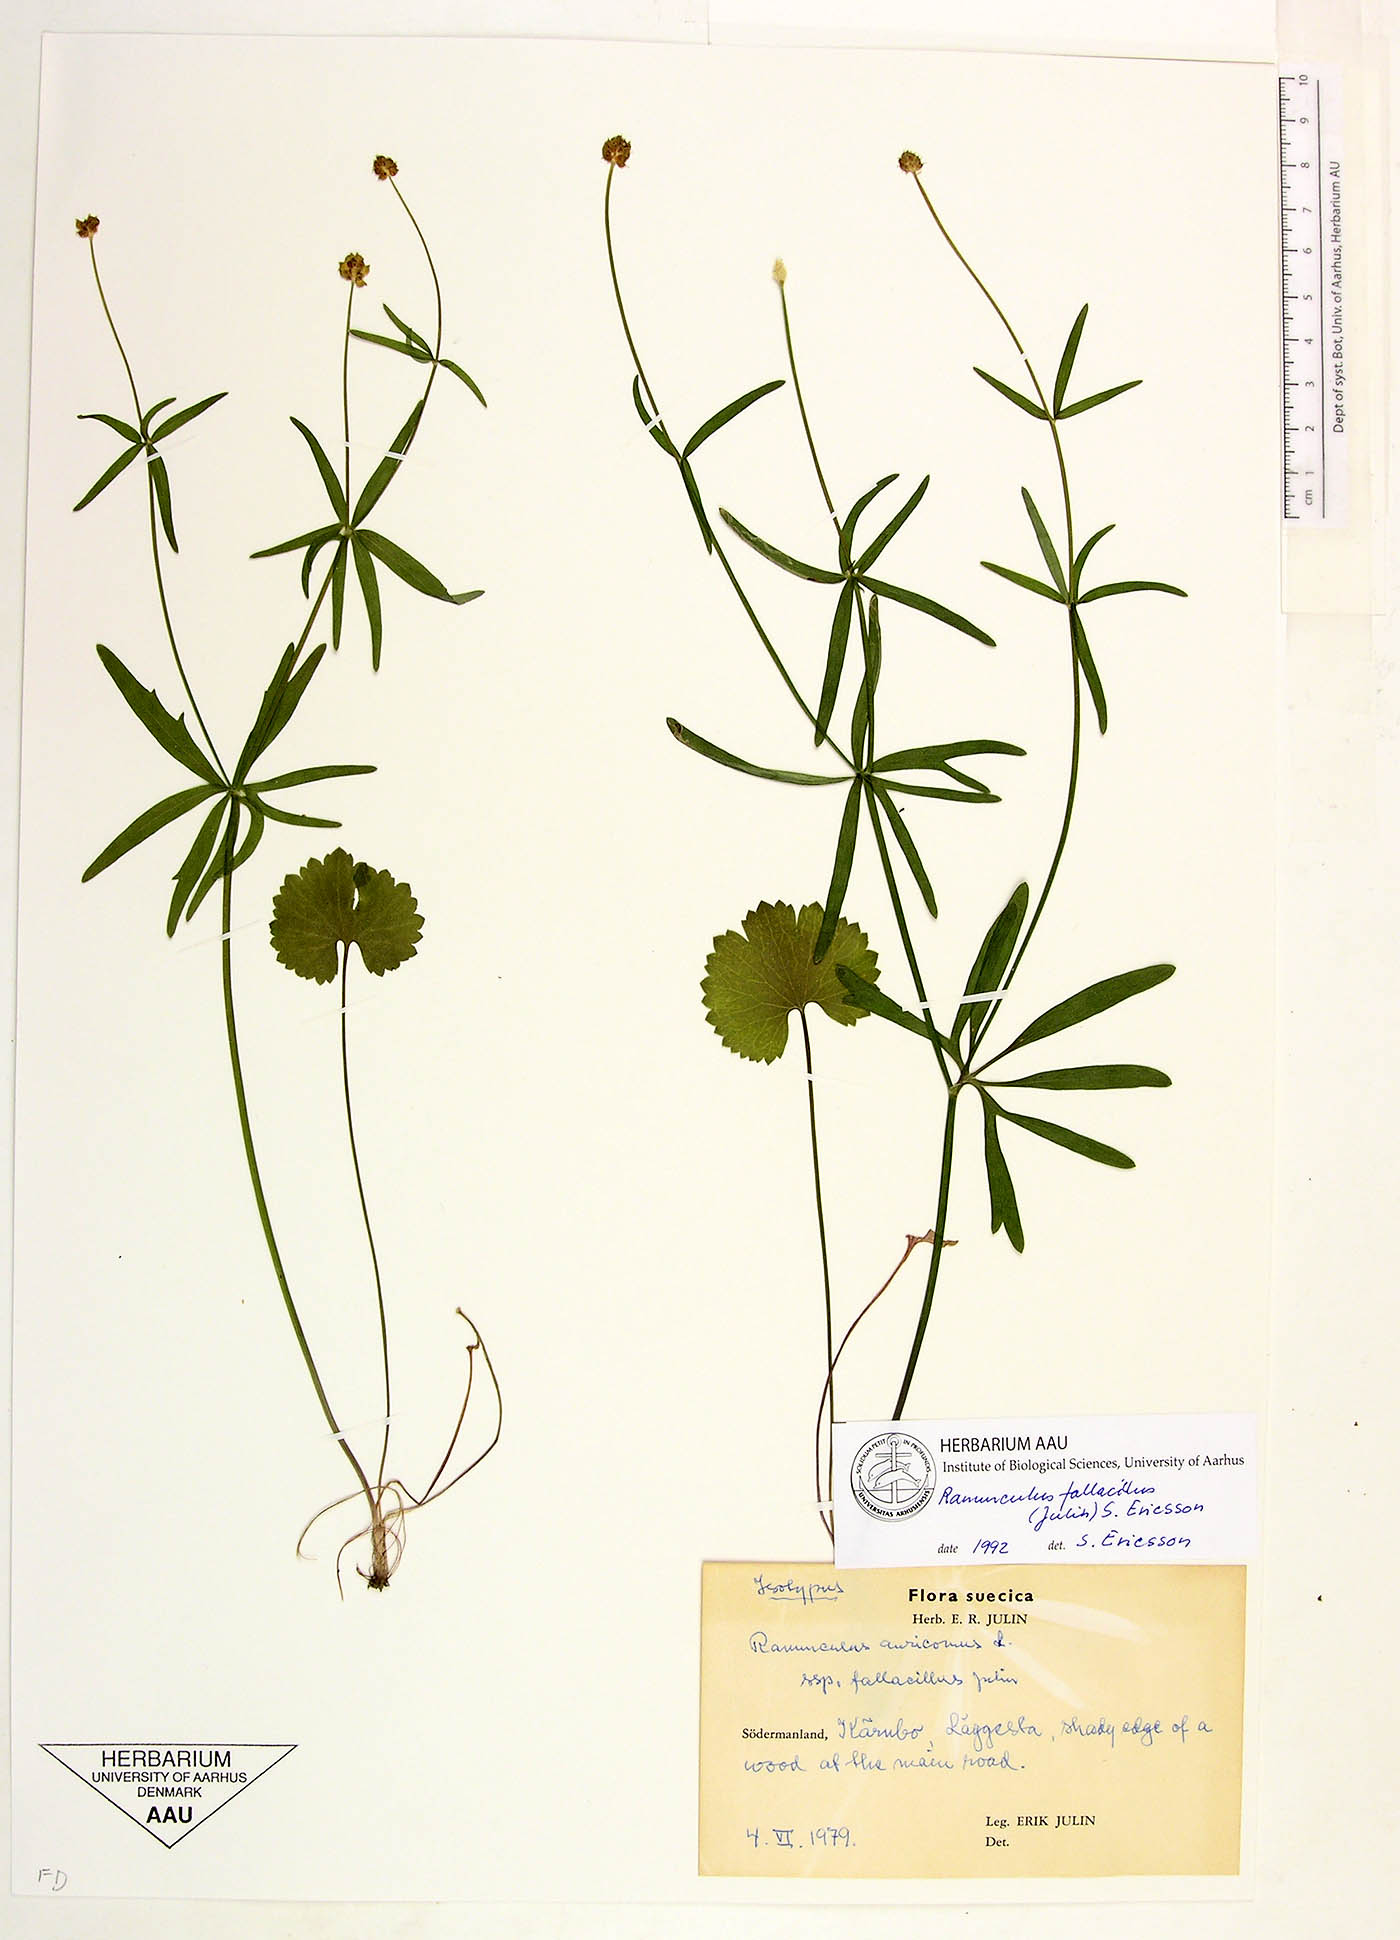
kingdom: Plantae
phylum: Tracheophyta
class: Magnoliopsida
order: Ranunculales
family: Ranunculaceae
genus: Ranunculus
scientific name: Ranunculus acuistylus
